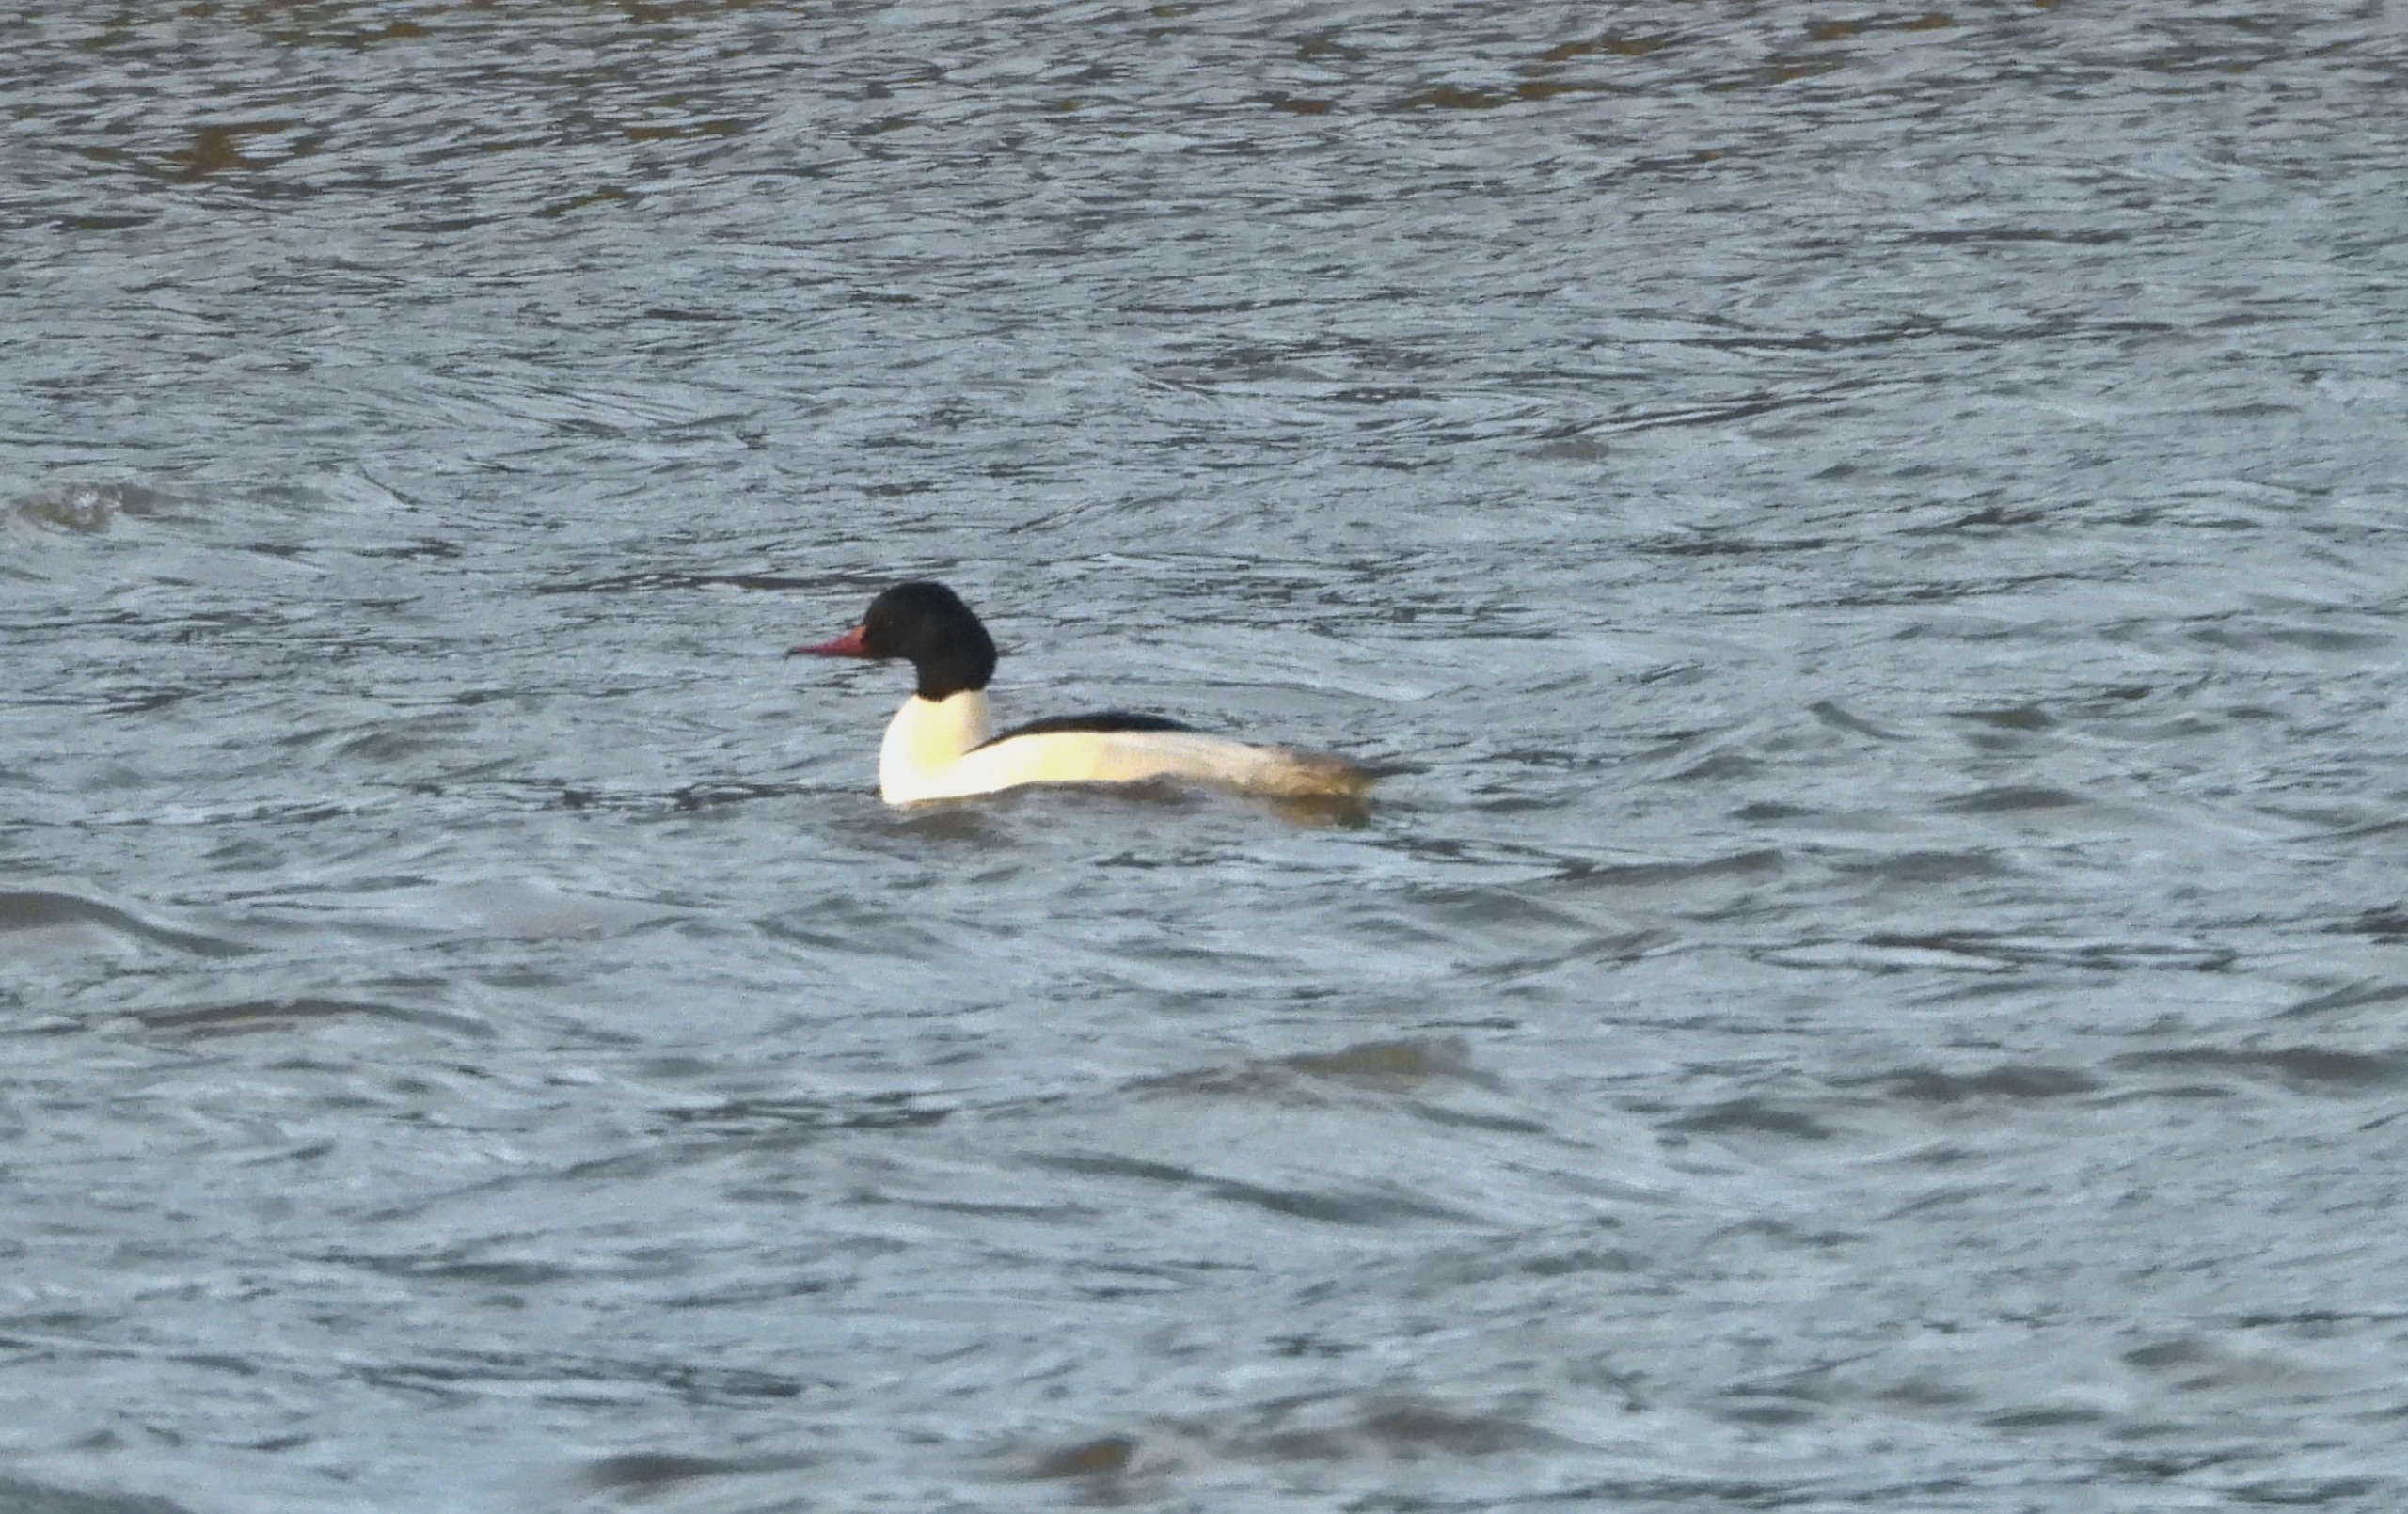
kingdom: Animalia
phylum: Chordata
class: Aves
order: Anseriformes
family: Anatidae
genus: Mergus
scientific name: Mergus merganser
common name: Stor skallesluger
